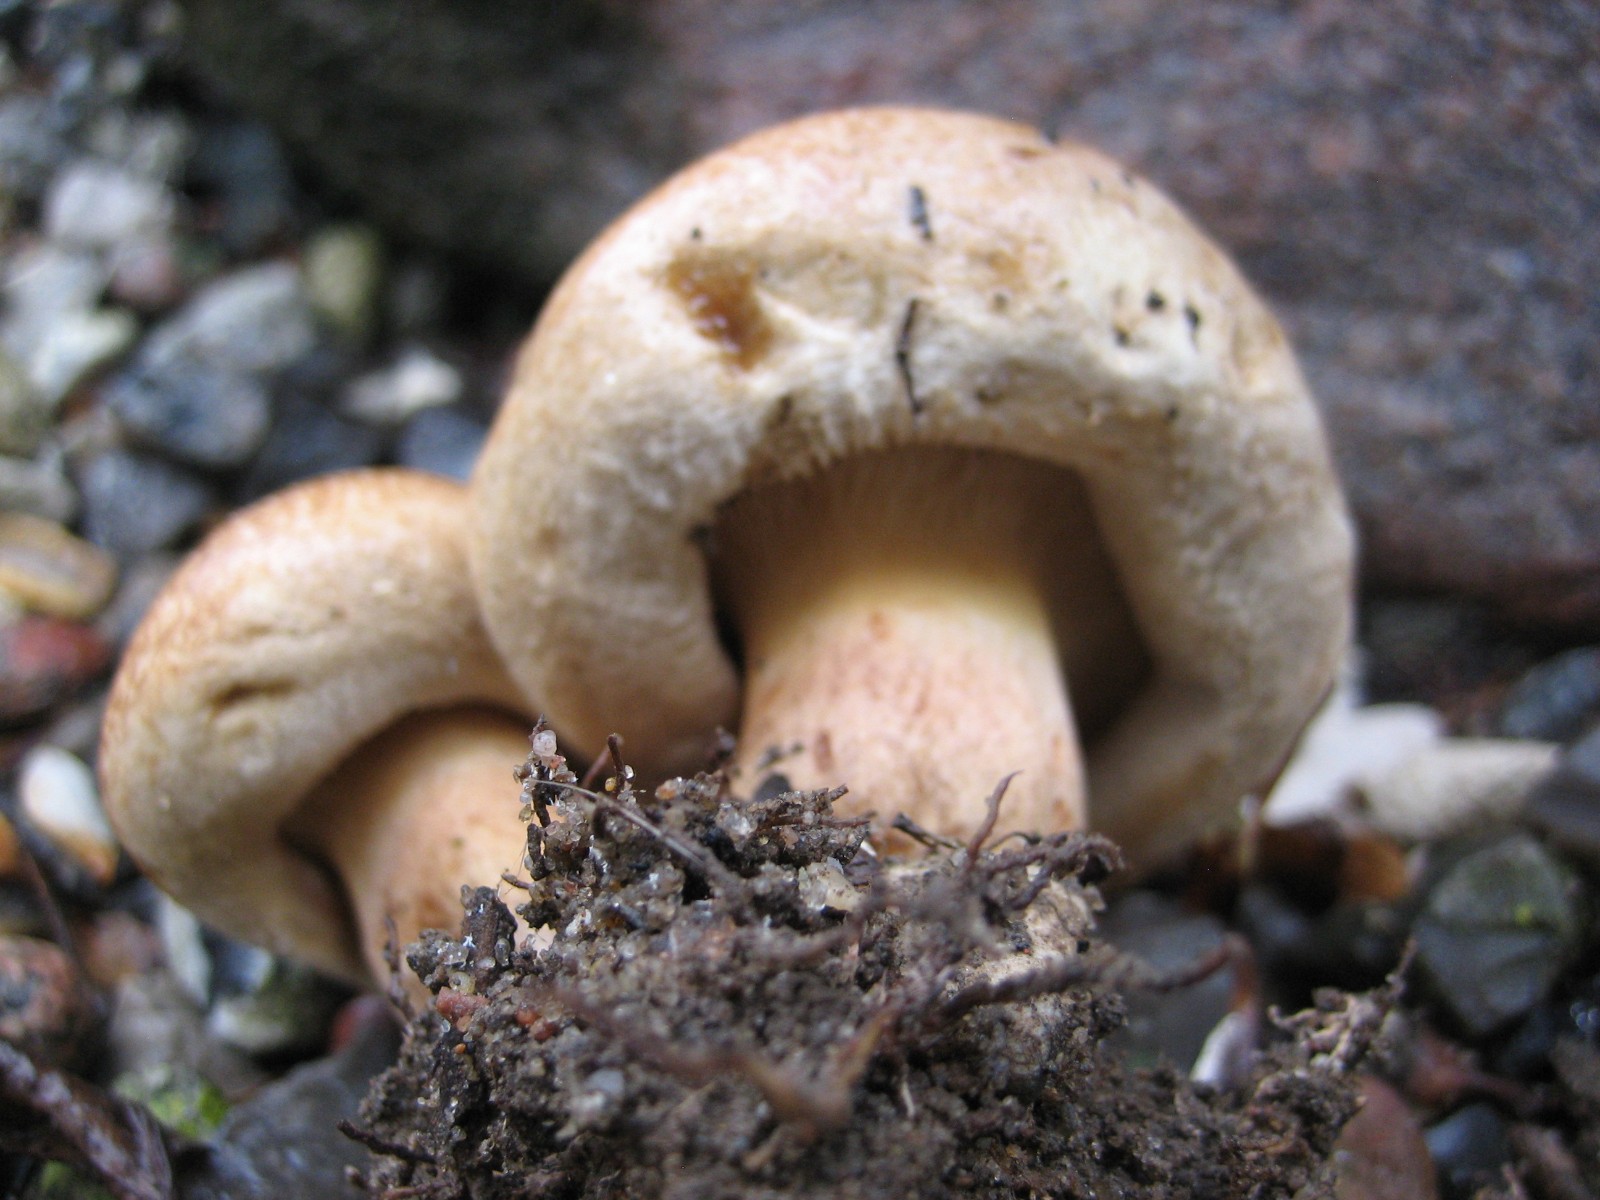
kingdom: Fungi
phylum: Basidiomycota
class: Agaricomycetes
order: Boletales
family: Paxillaceae
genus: Paxillus
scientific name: Paxillus obscurisporus
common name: mahognisporet netbladhat
